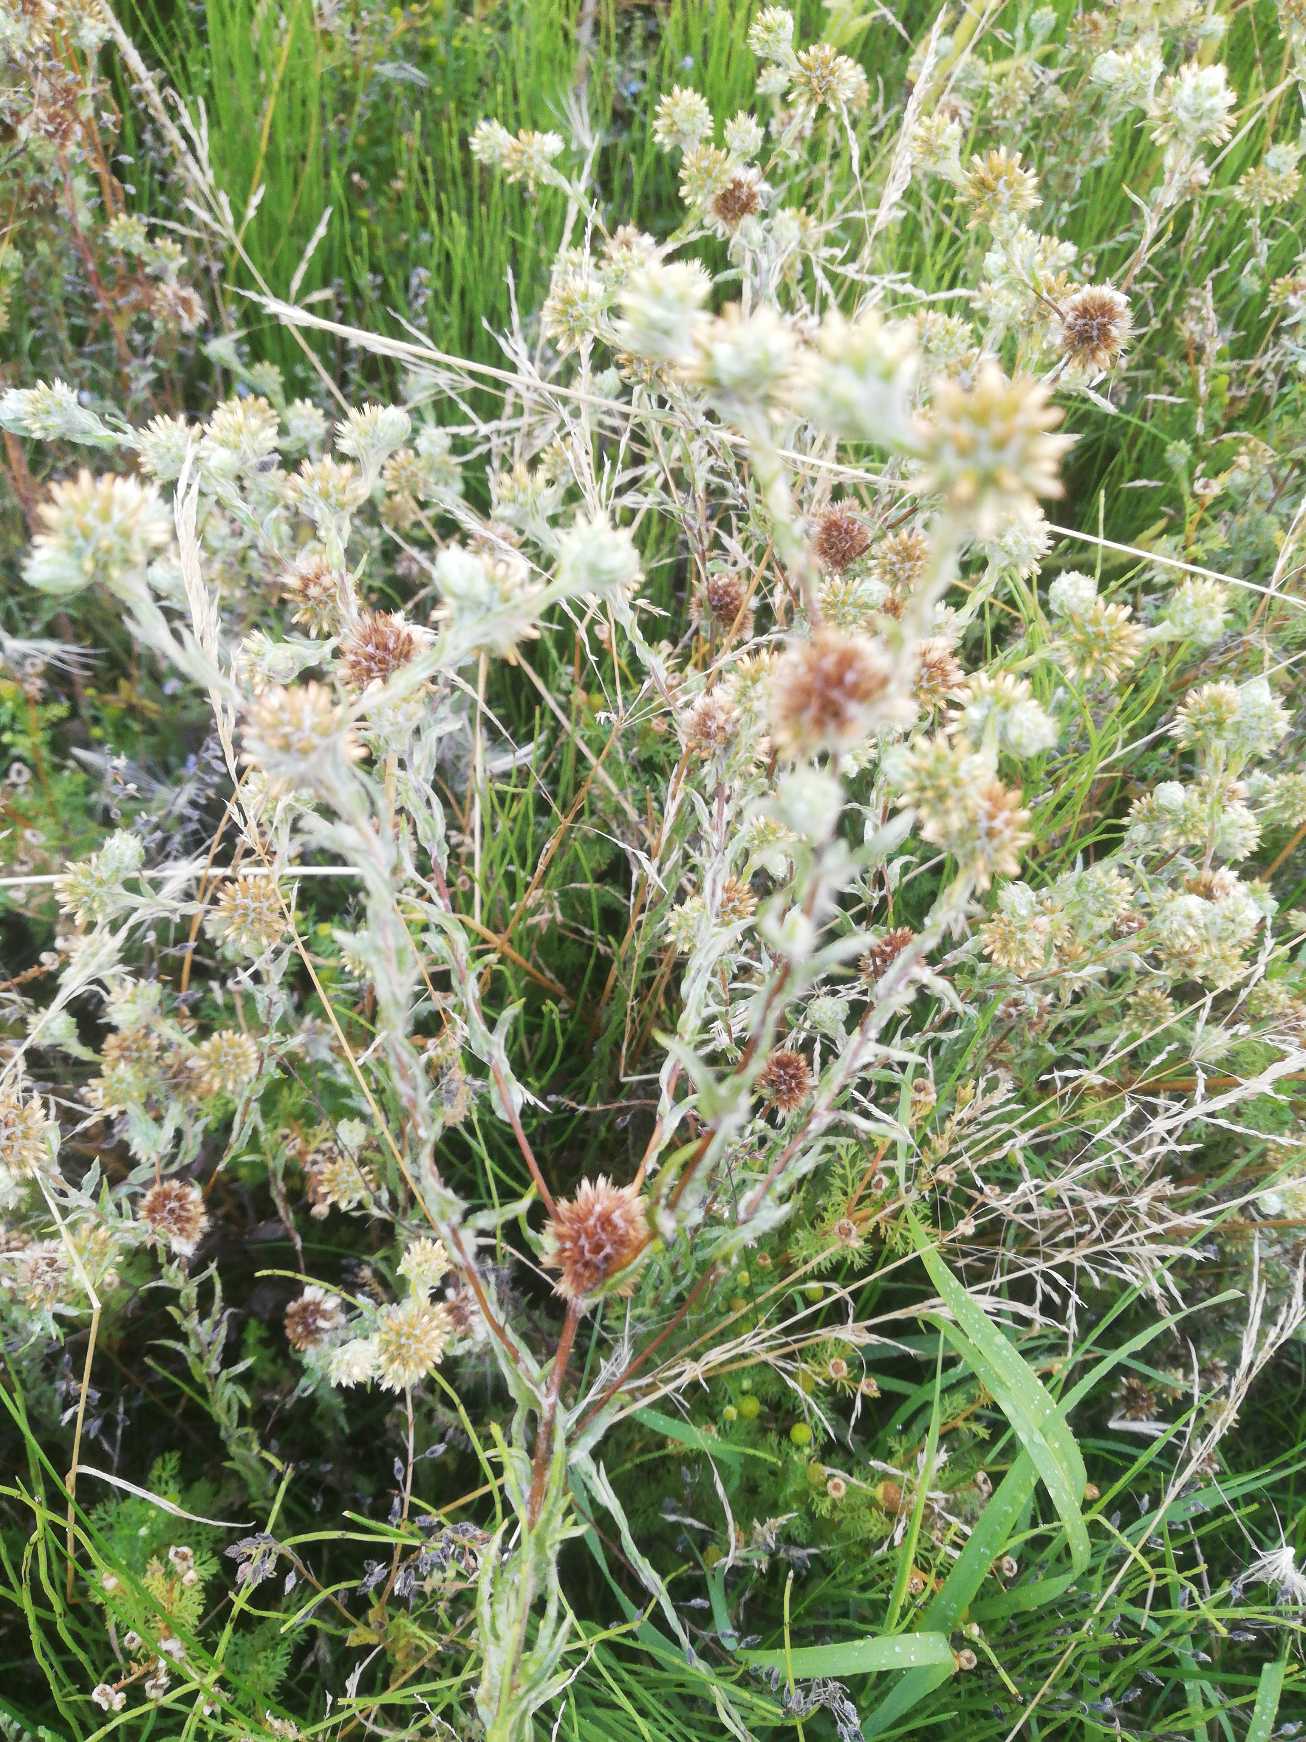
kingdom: Plantae
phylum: Tracheophyta
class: Magnoliopsida
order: Asterales
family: Asteraceae
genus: Filago
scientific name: Filago germanica
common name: Kugle-museurt
